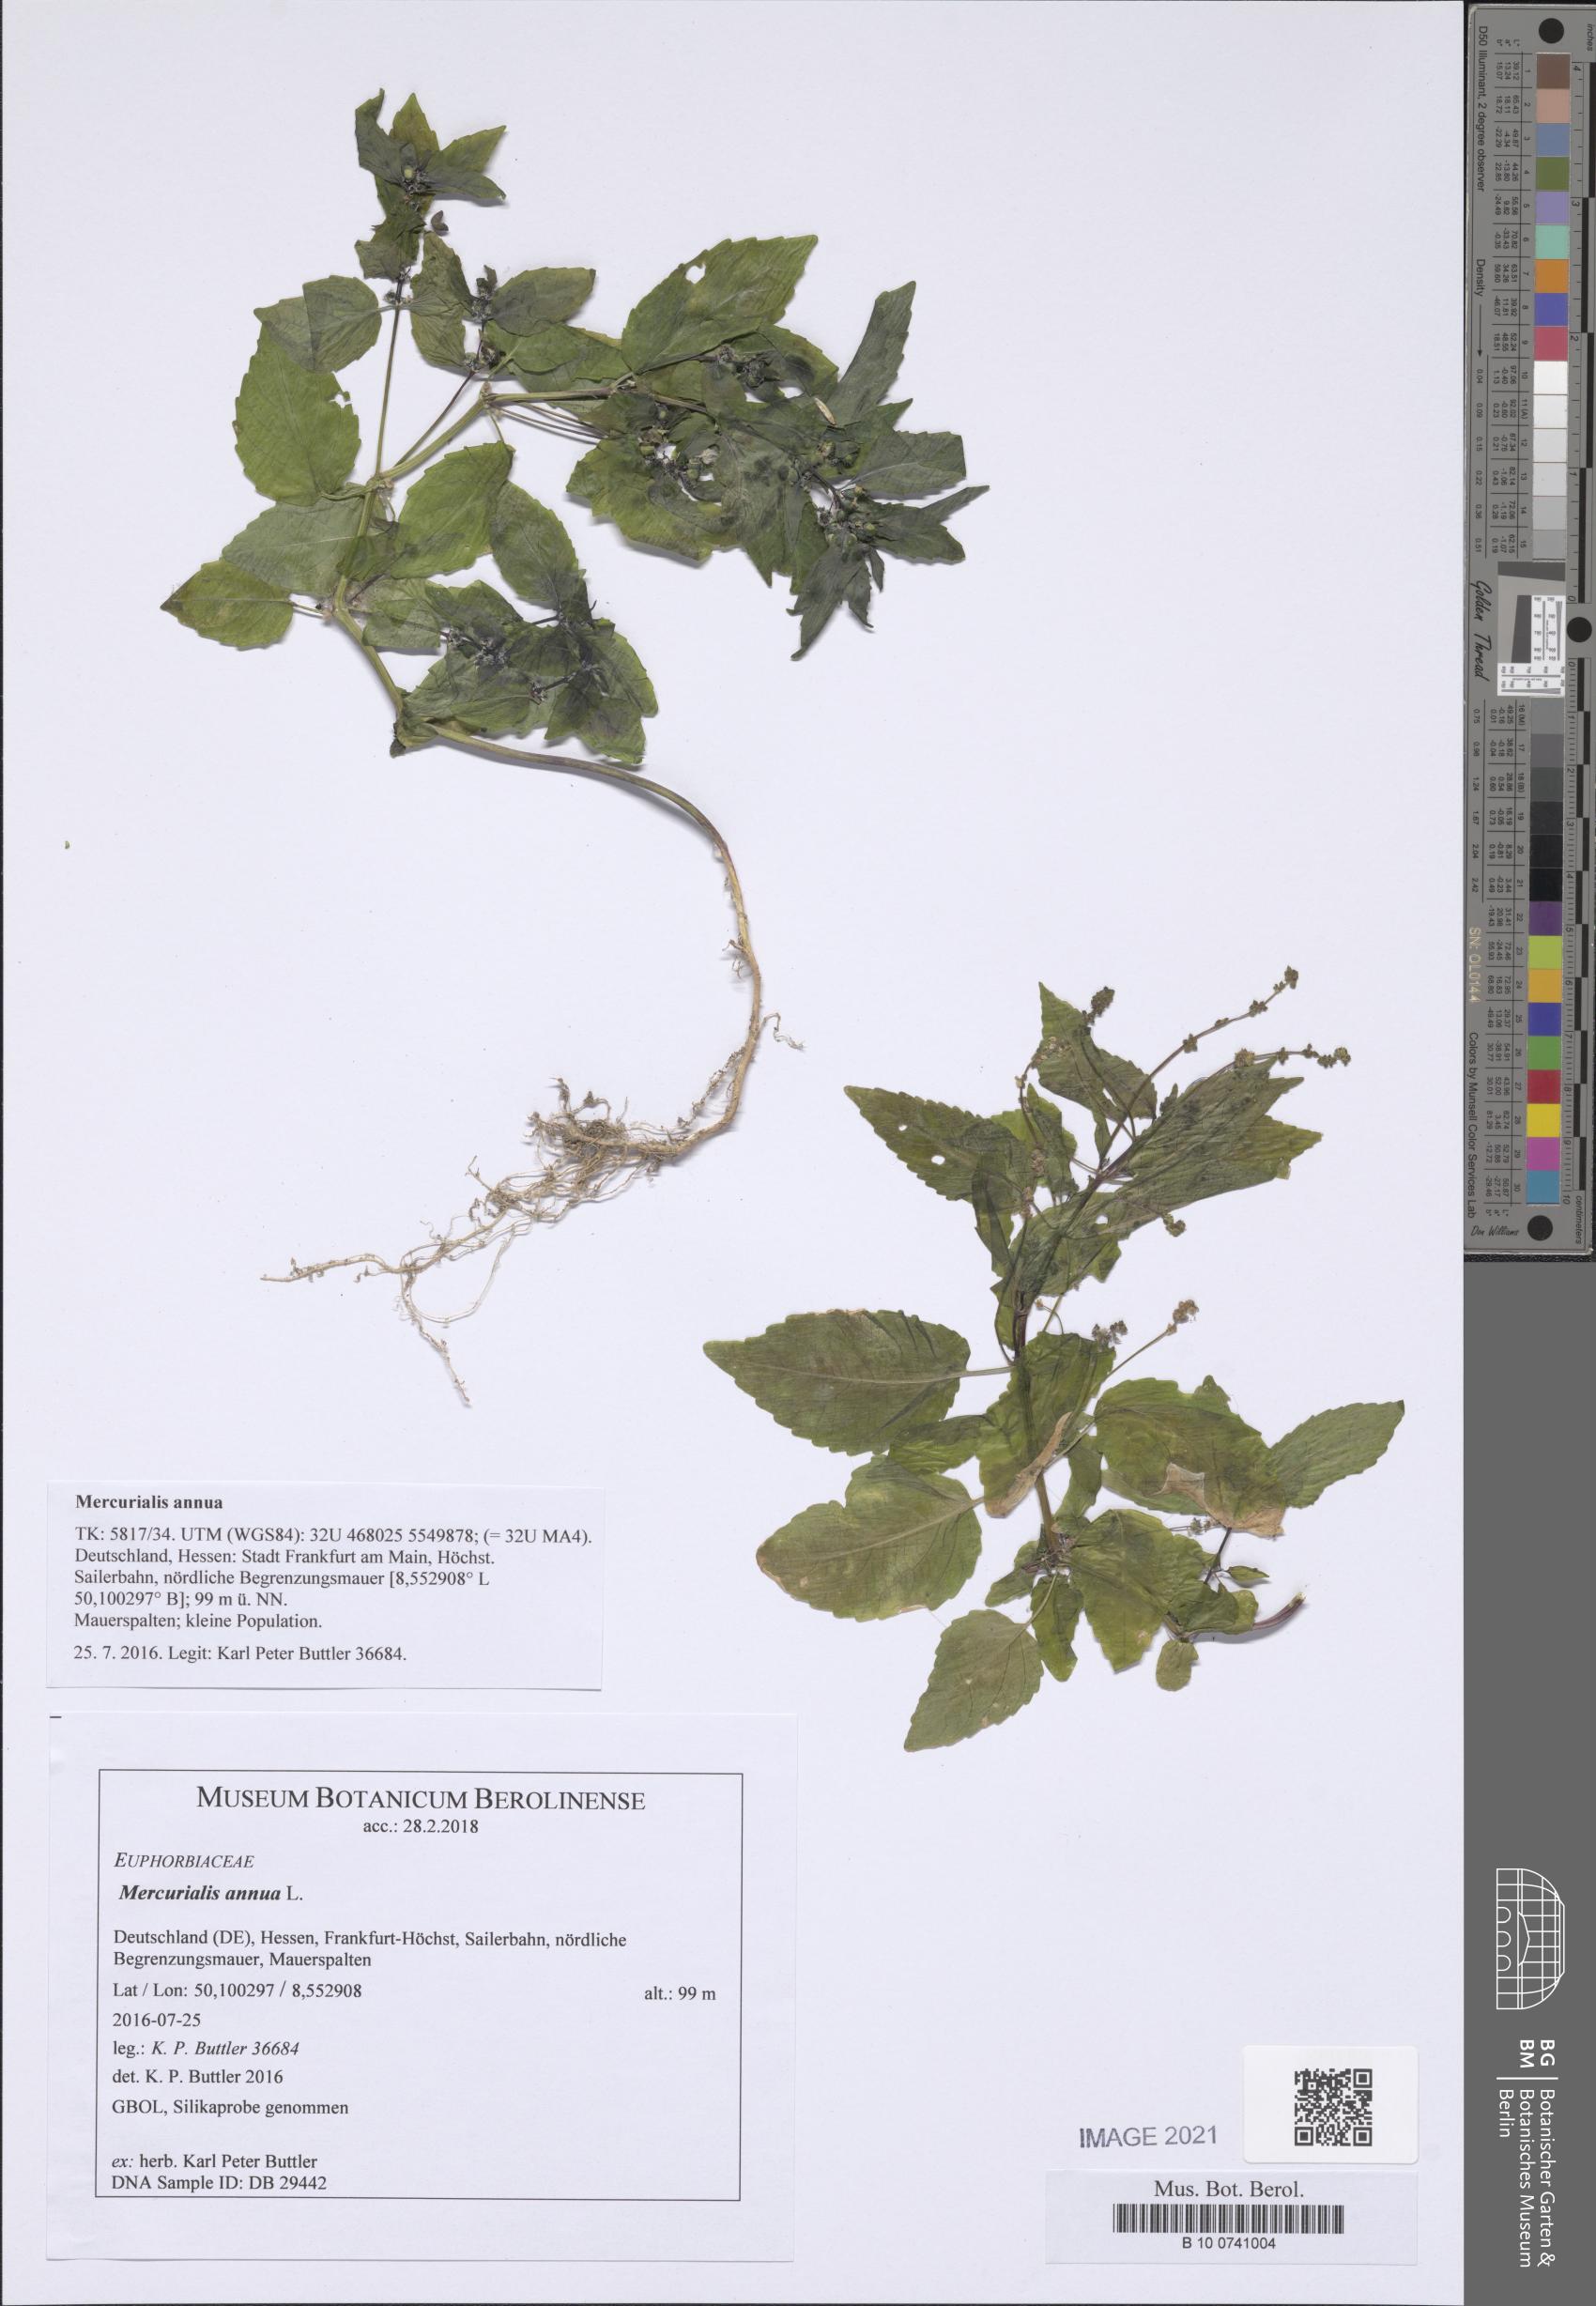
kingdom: Plantae
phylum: Tracheophyta
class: Magnoliopsida
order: Malpighiales
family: Euphorbiaceae
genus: Mercurialis
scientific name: Mercurialis annua
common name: Annual mercury
